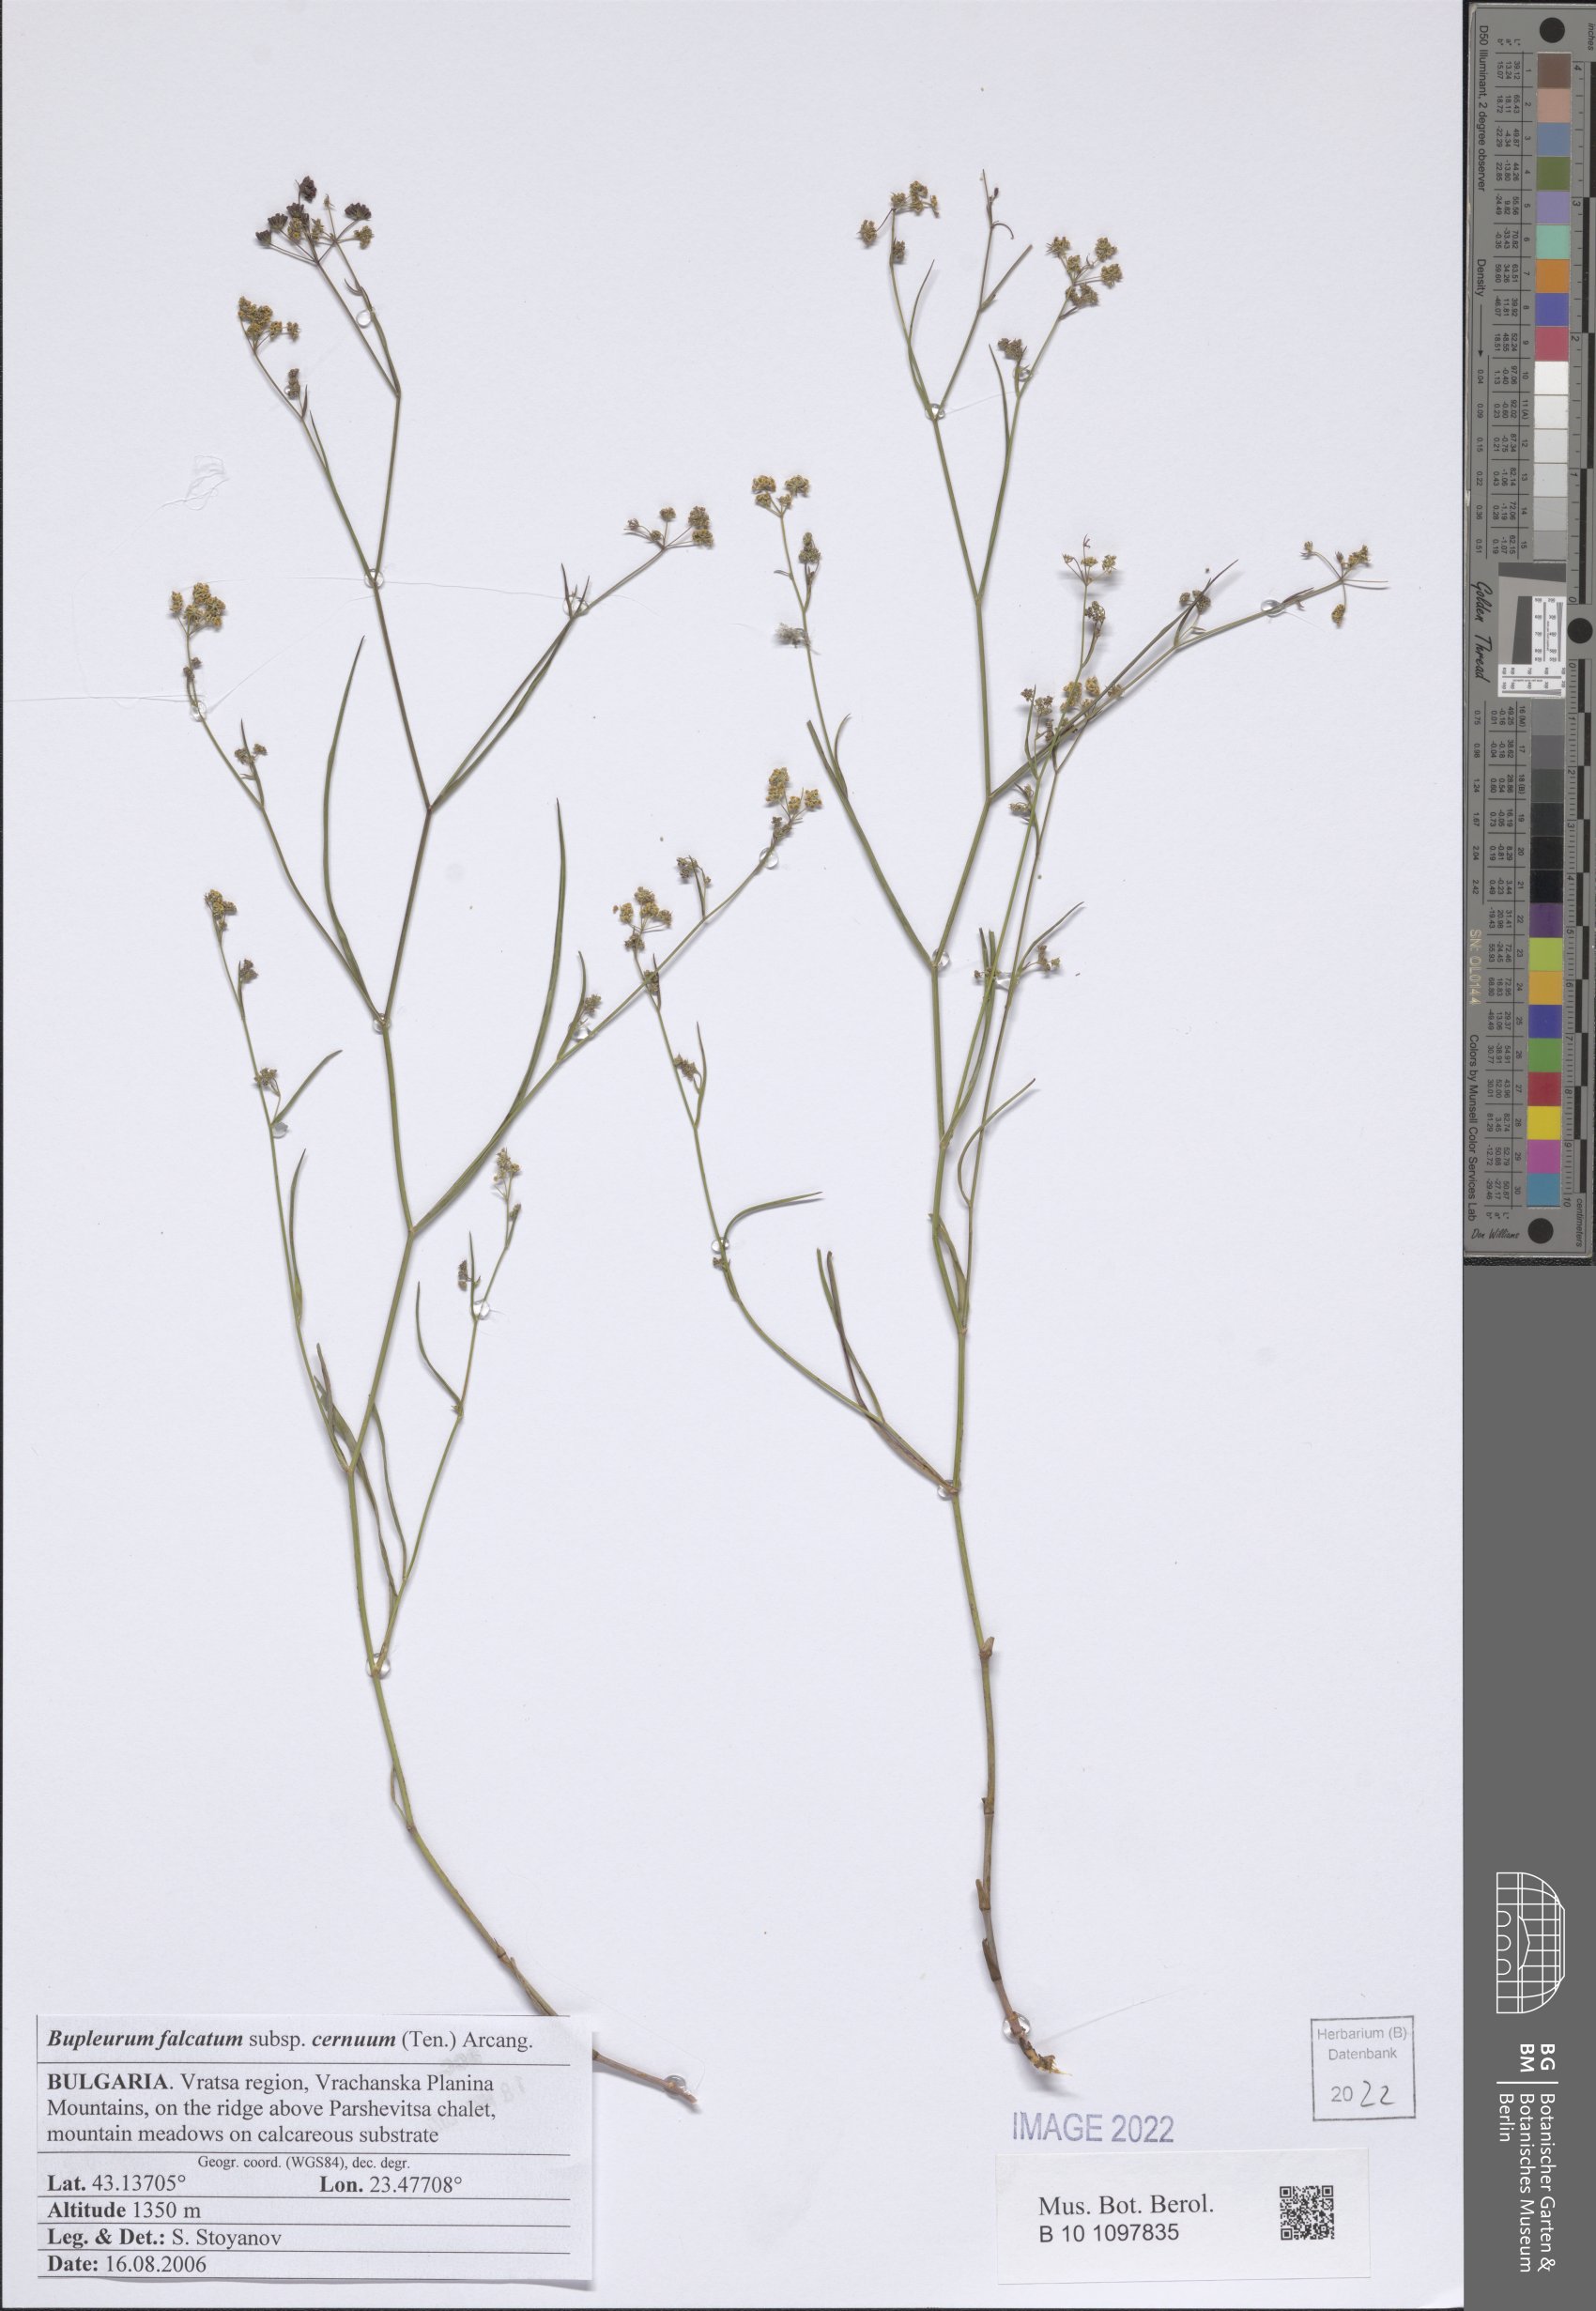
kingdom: Plantae
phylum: Tracheophyta
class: Magnoliopsida
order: Apiales
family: Apiaceae
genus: Bupleurum
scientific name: Bupleurum exaltatum
